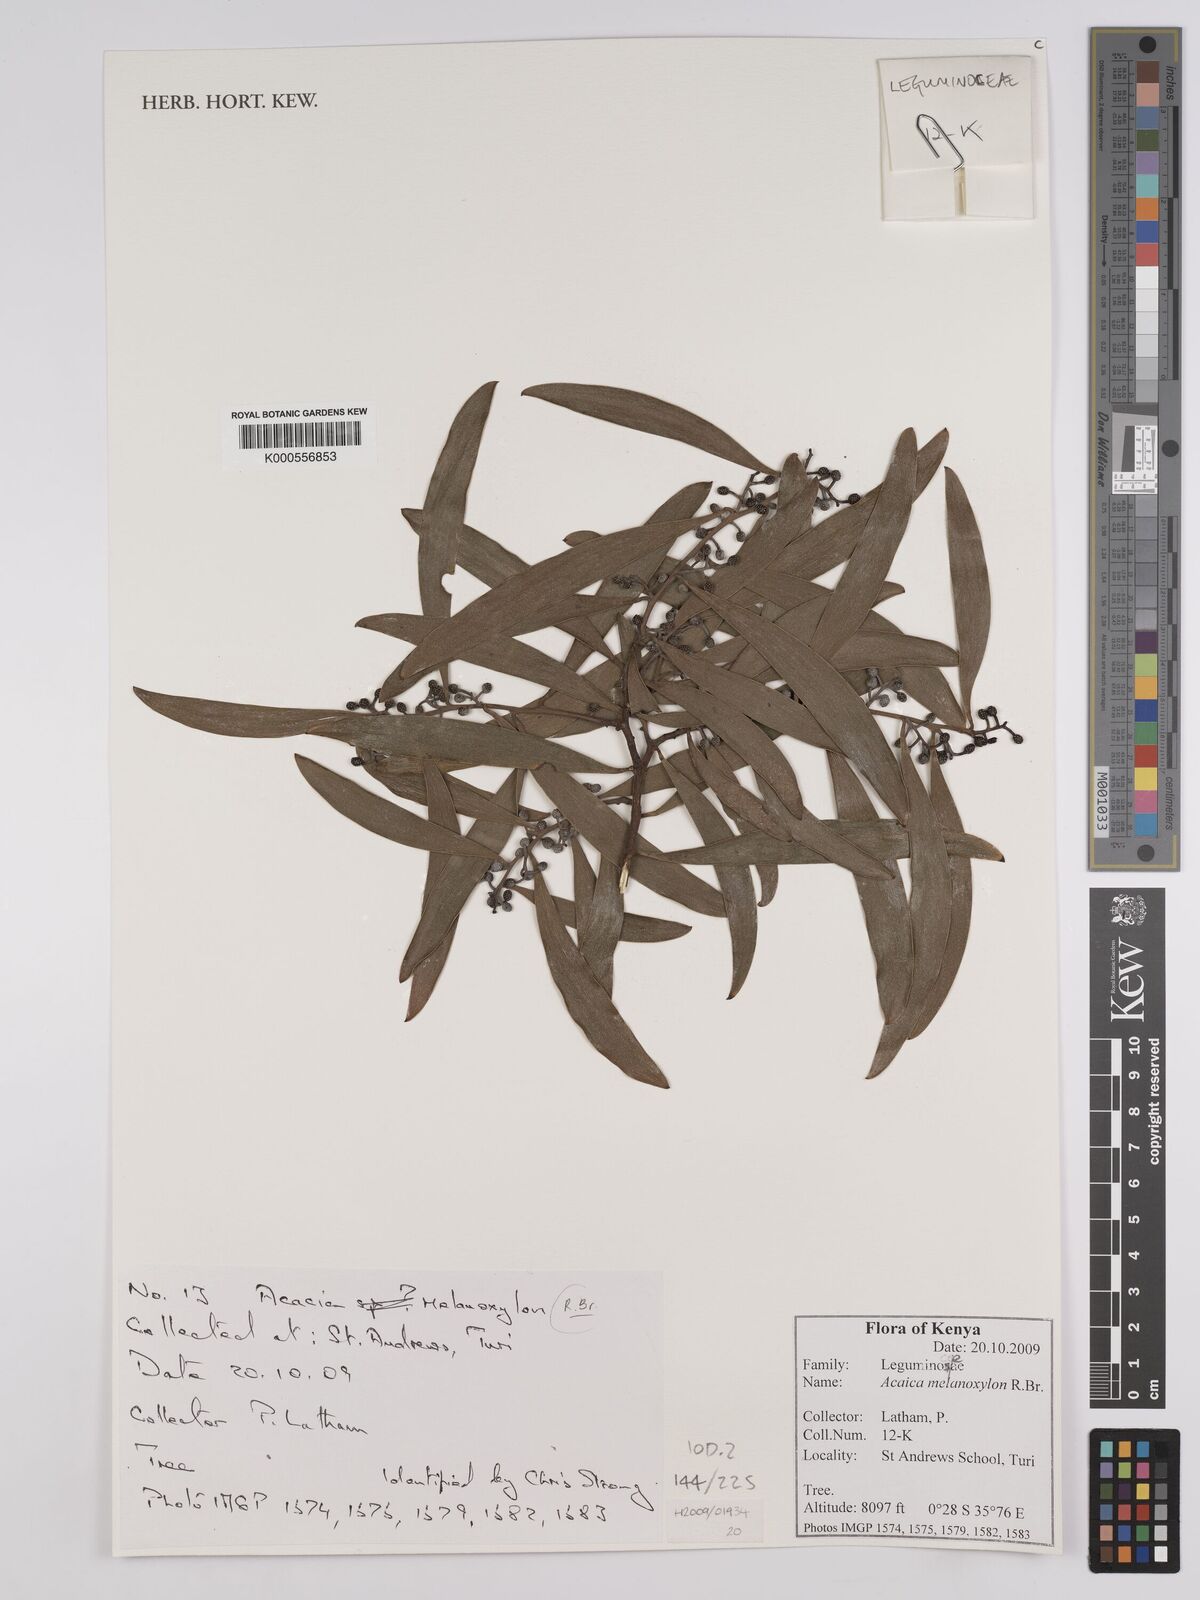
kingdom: Plantae
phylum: Tracheophyta
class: Magnoliopsida
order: Fabales
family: Fabaceae
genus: Acacia
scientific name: Acacia melanoxylon
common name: Blackwood
